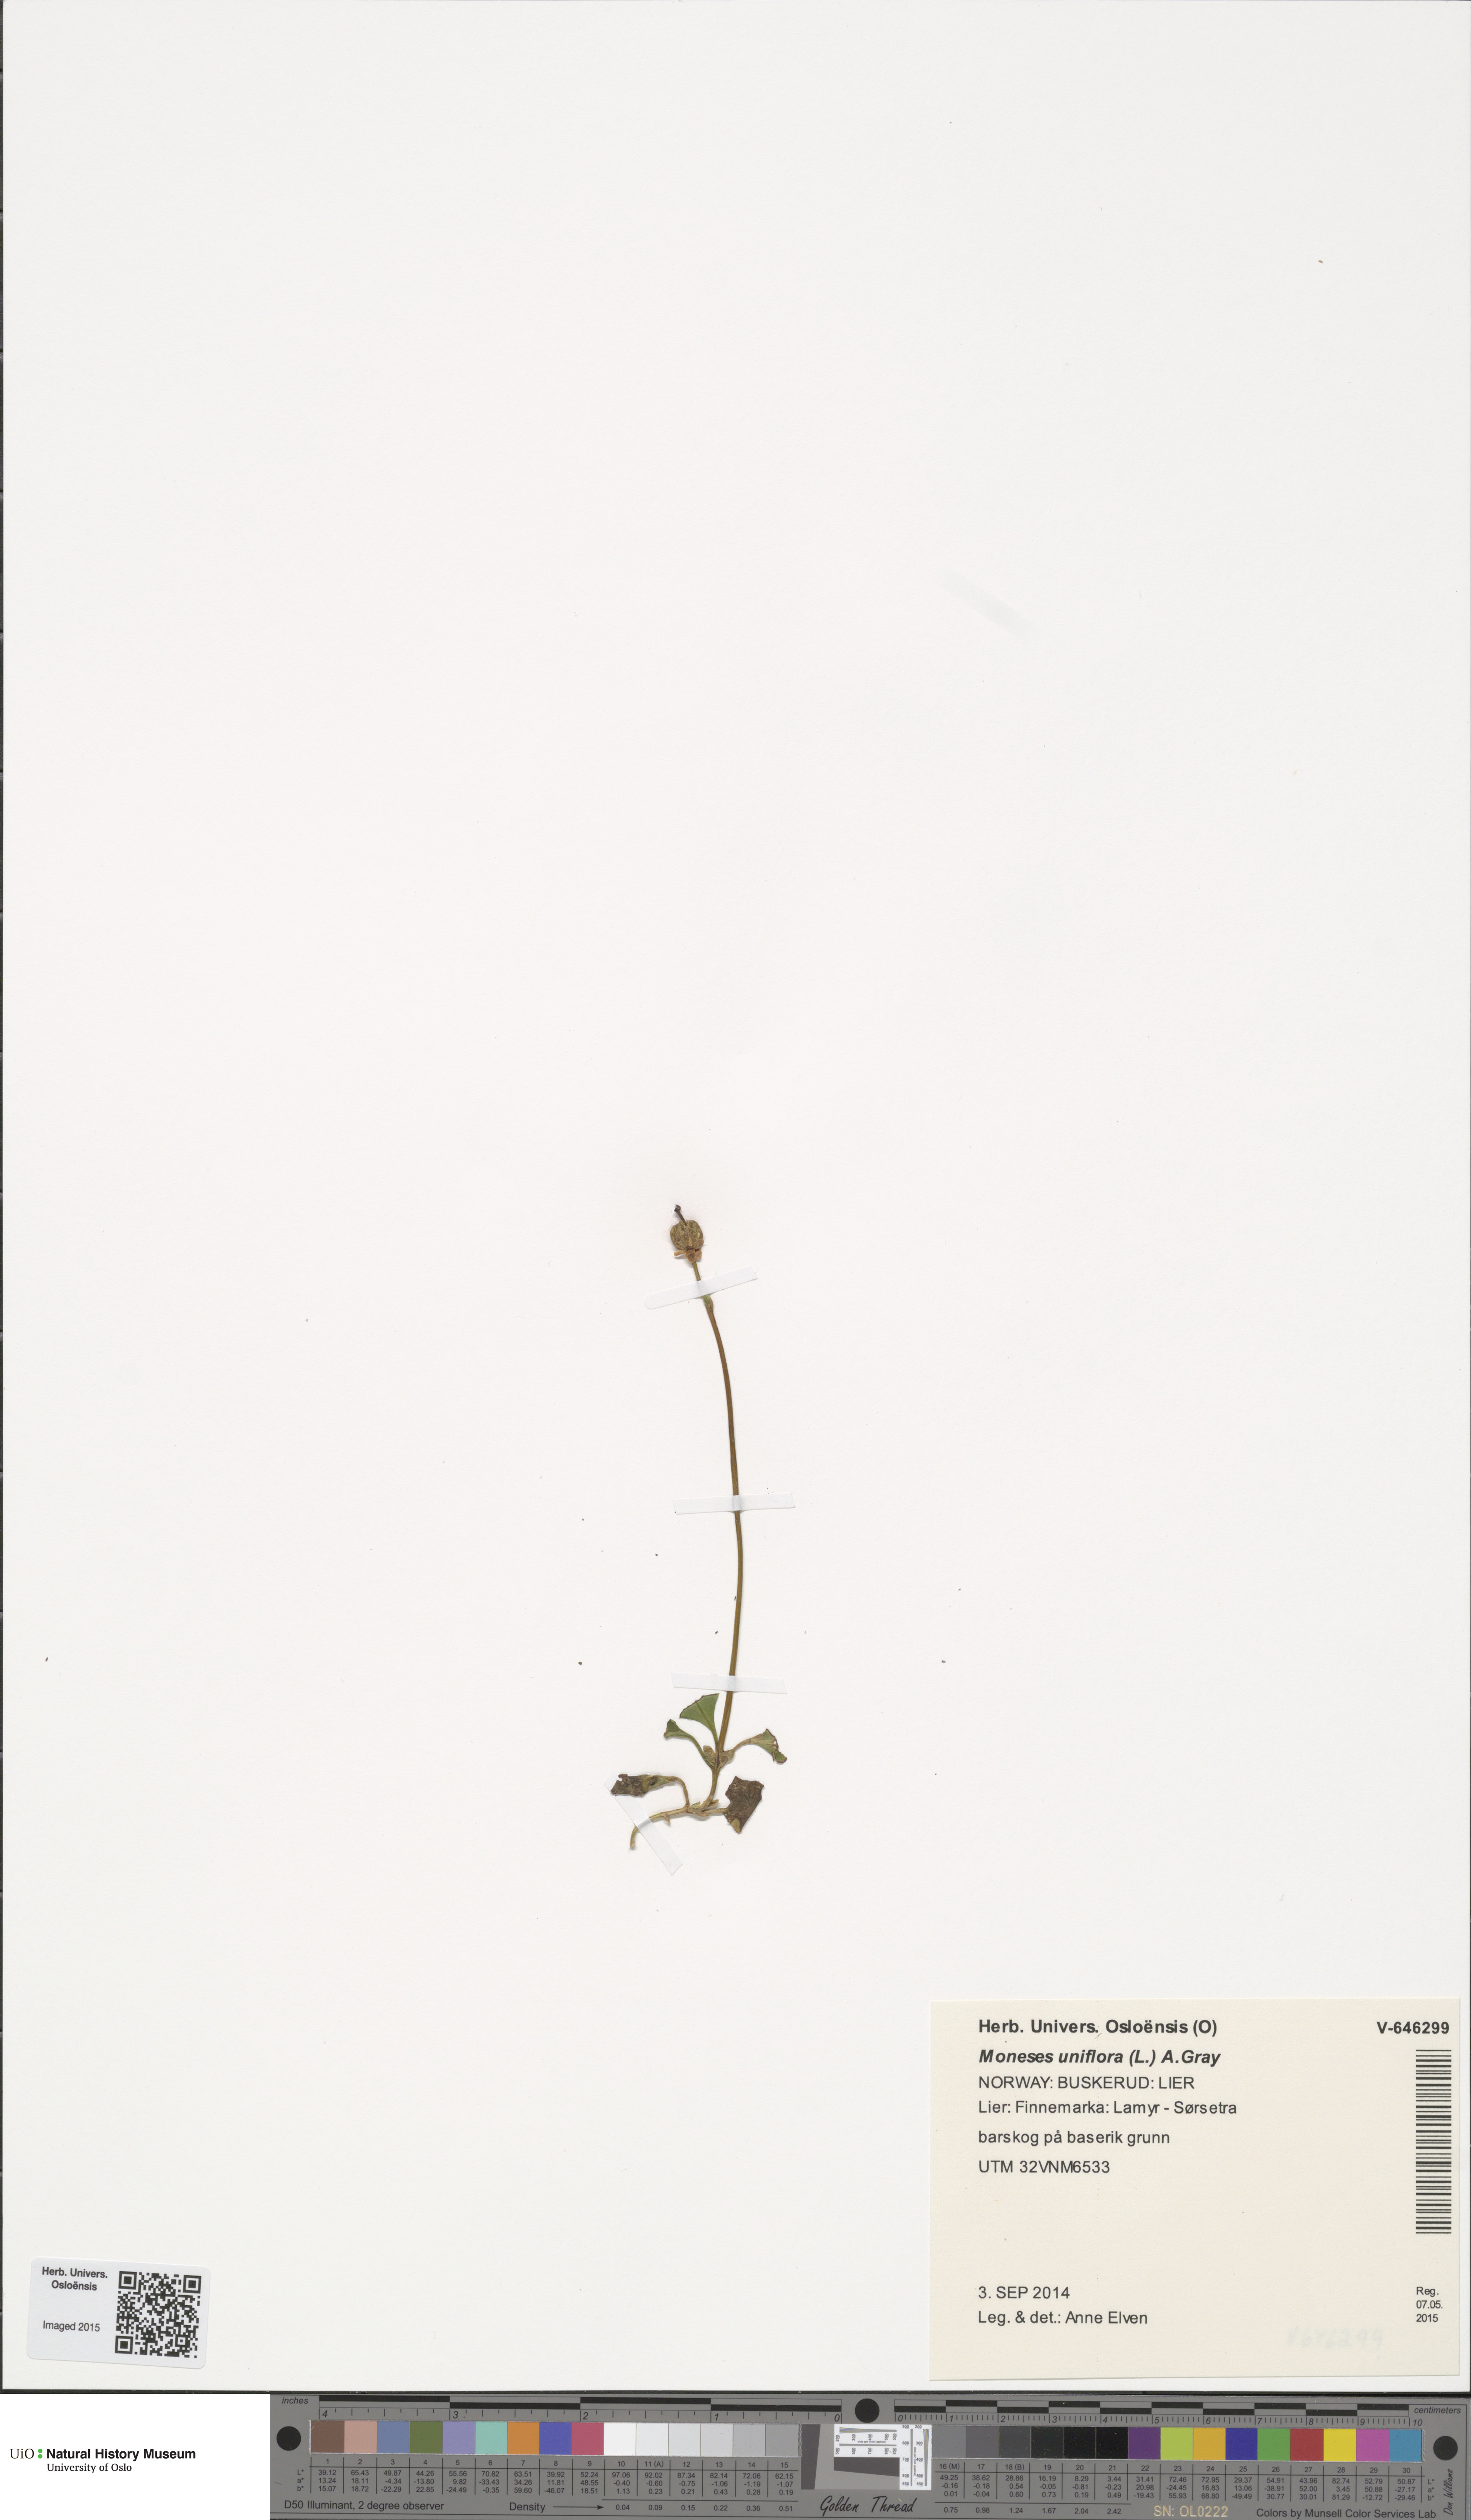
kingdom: Plantae
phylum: Tracheophyta
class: Magnoliopsida
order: Ericales
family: Ericaceae
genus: Moneses
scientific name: Moneses uniflora
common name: One-flowered wintergreen
